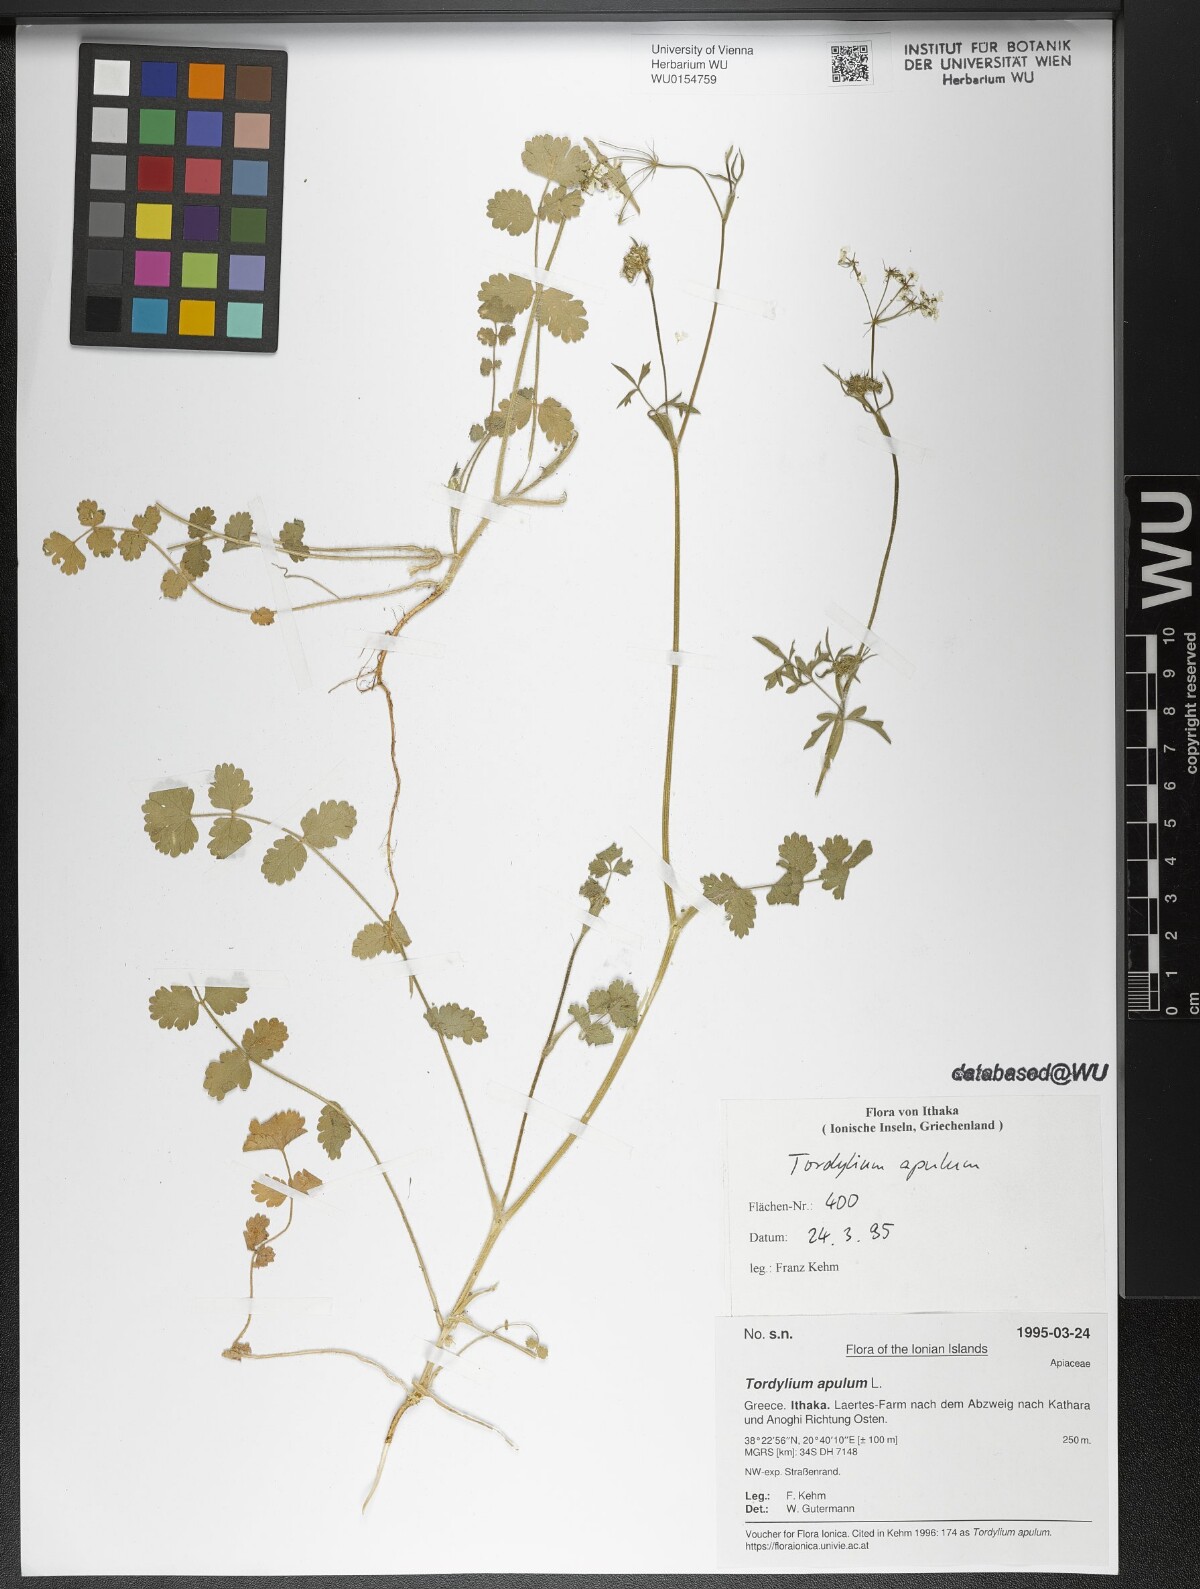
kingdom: Plantae
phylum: Tracheophyta
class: Magnoliopsida
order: Apiales
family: Apiaceae
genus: Tordylium
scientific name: Tordylium apulum
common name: Mediterranean hartwort
